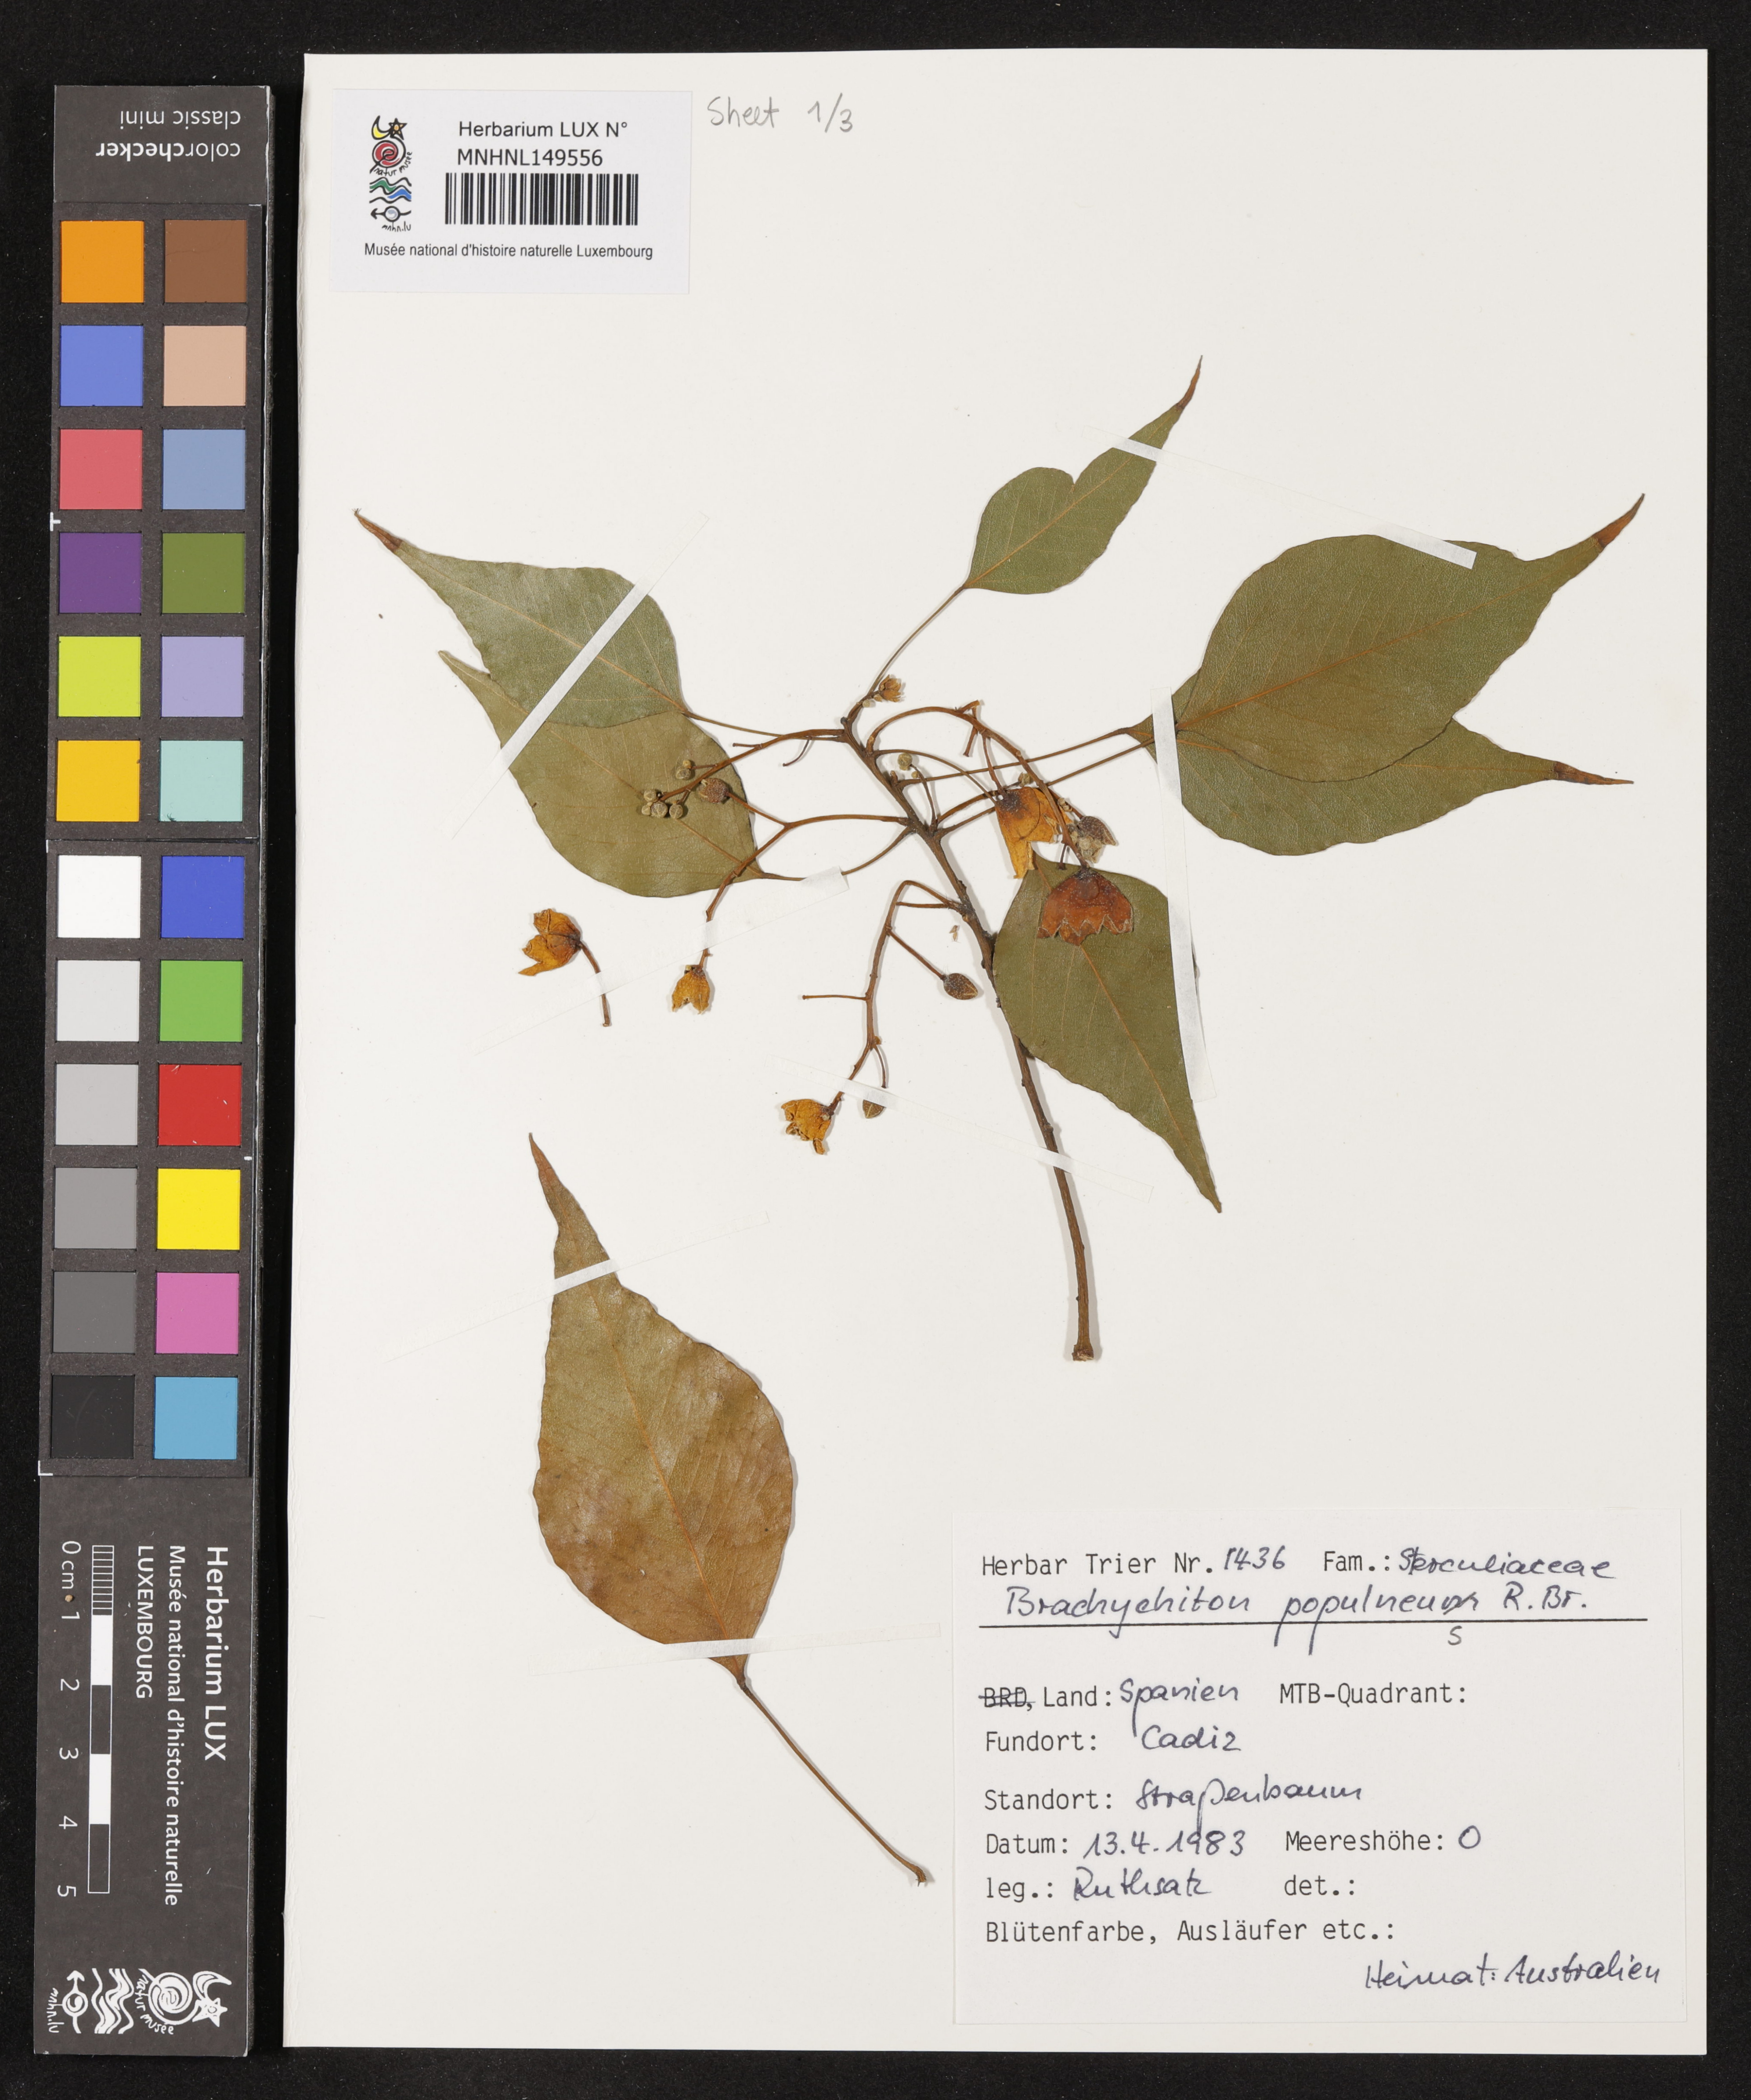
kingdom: Plantae
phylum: Tracheophyta
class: Magnoliopsida
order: Malvales
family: Malvaceae
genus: Brachychiton
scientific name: Brachychiton populneus
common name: Kurrajong
